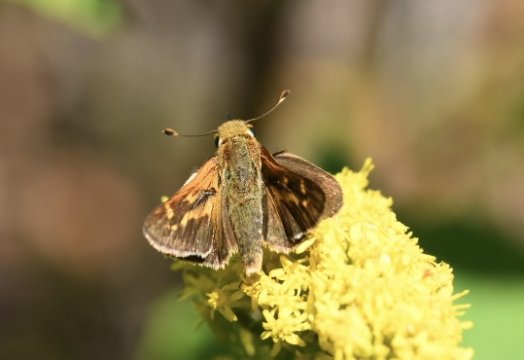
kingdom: Animalia
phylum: Arthropoda
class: Insecta
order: Lepidoptera
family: Hesperiidae
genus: Hesperia
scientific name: Hesperia leonardus
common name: Leonard's Skipper
